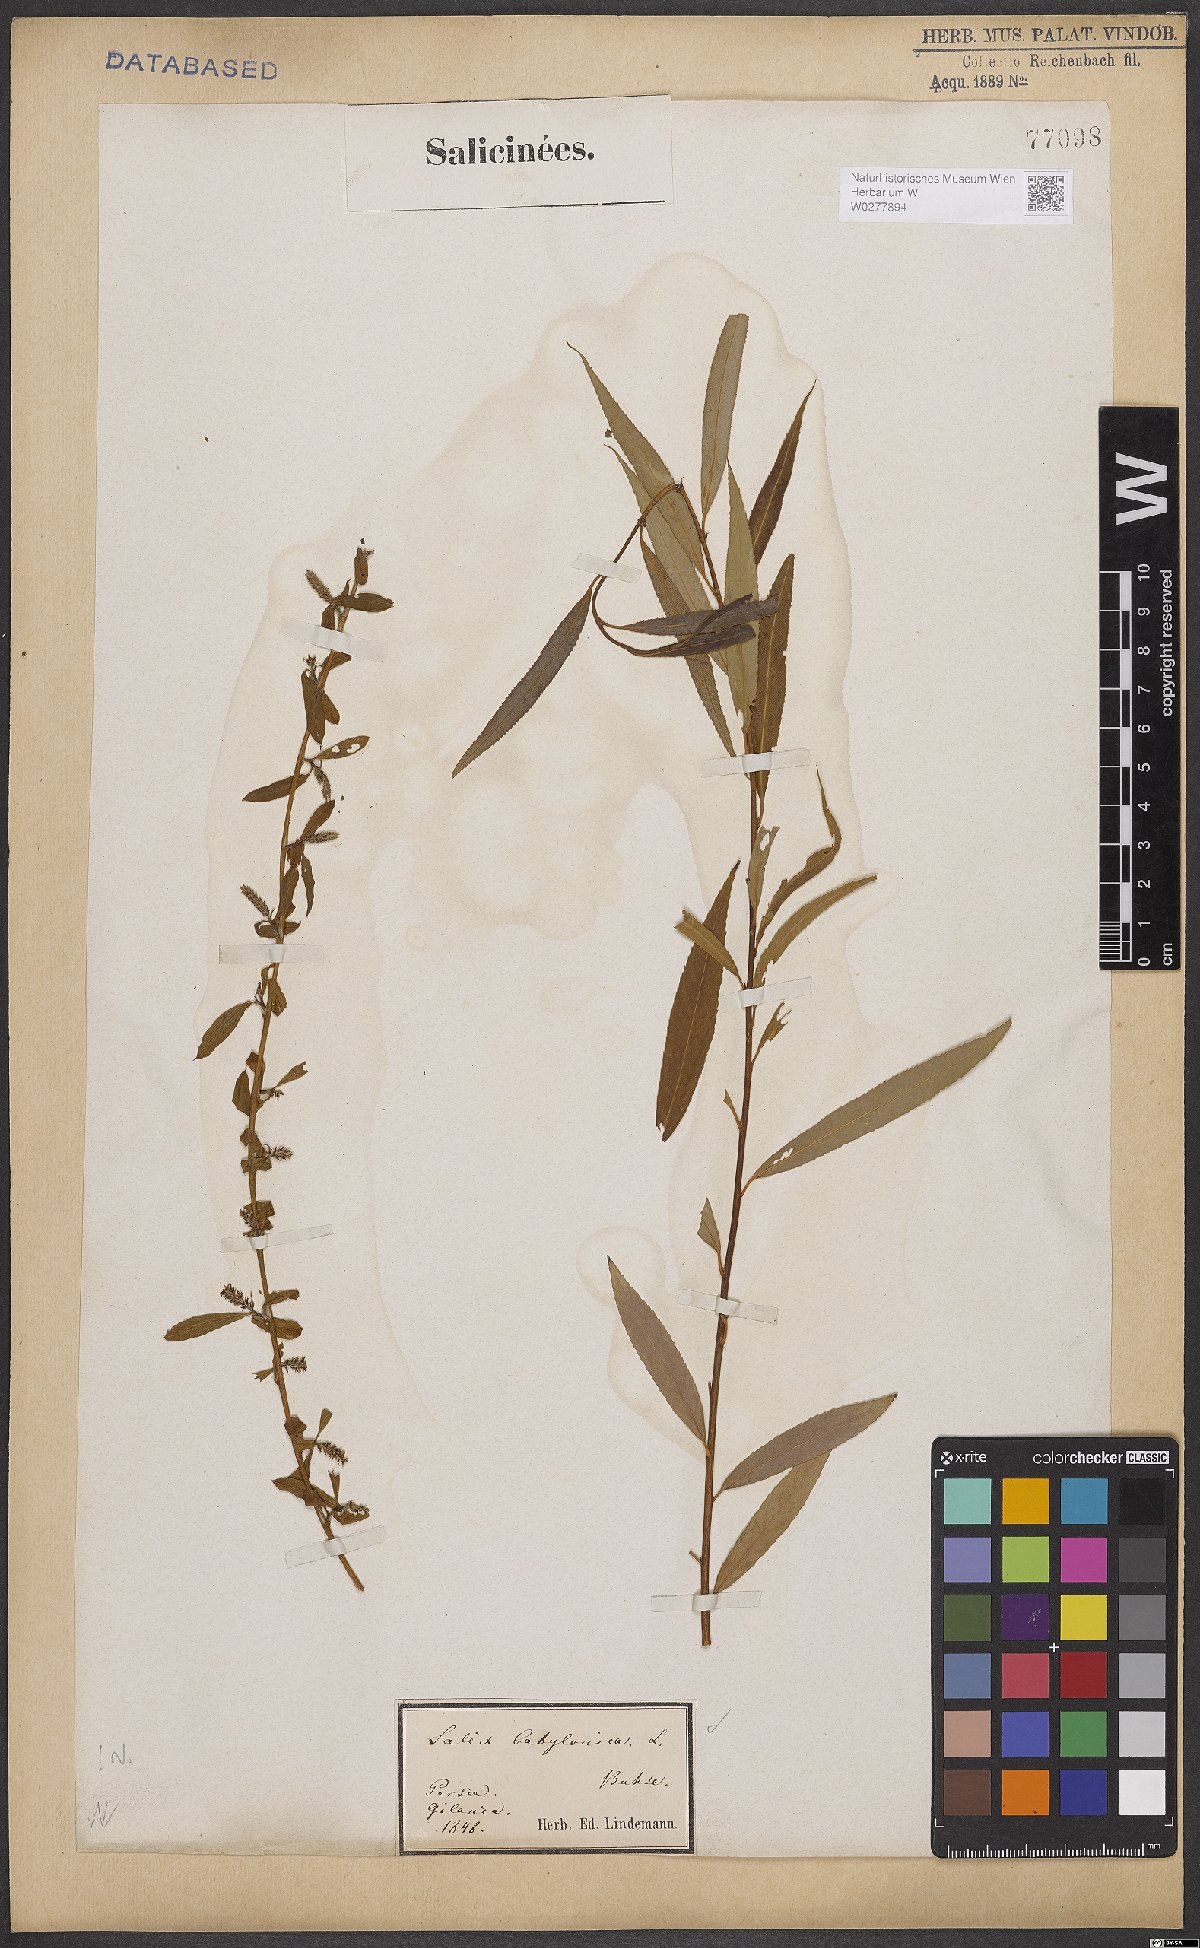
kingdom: Plantae
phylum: Tracheophyta
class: Magnoliopsida
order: Malpighiales
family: Salicaceae
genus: Salix
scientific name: Salix babylonica
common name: Weeping willow
